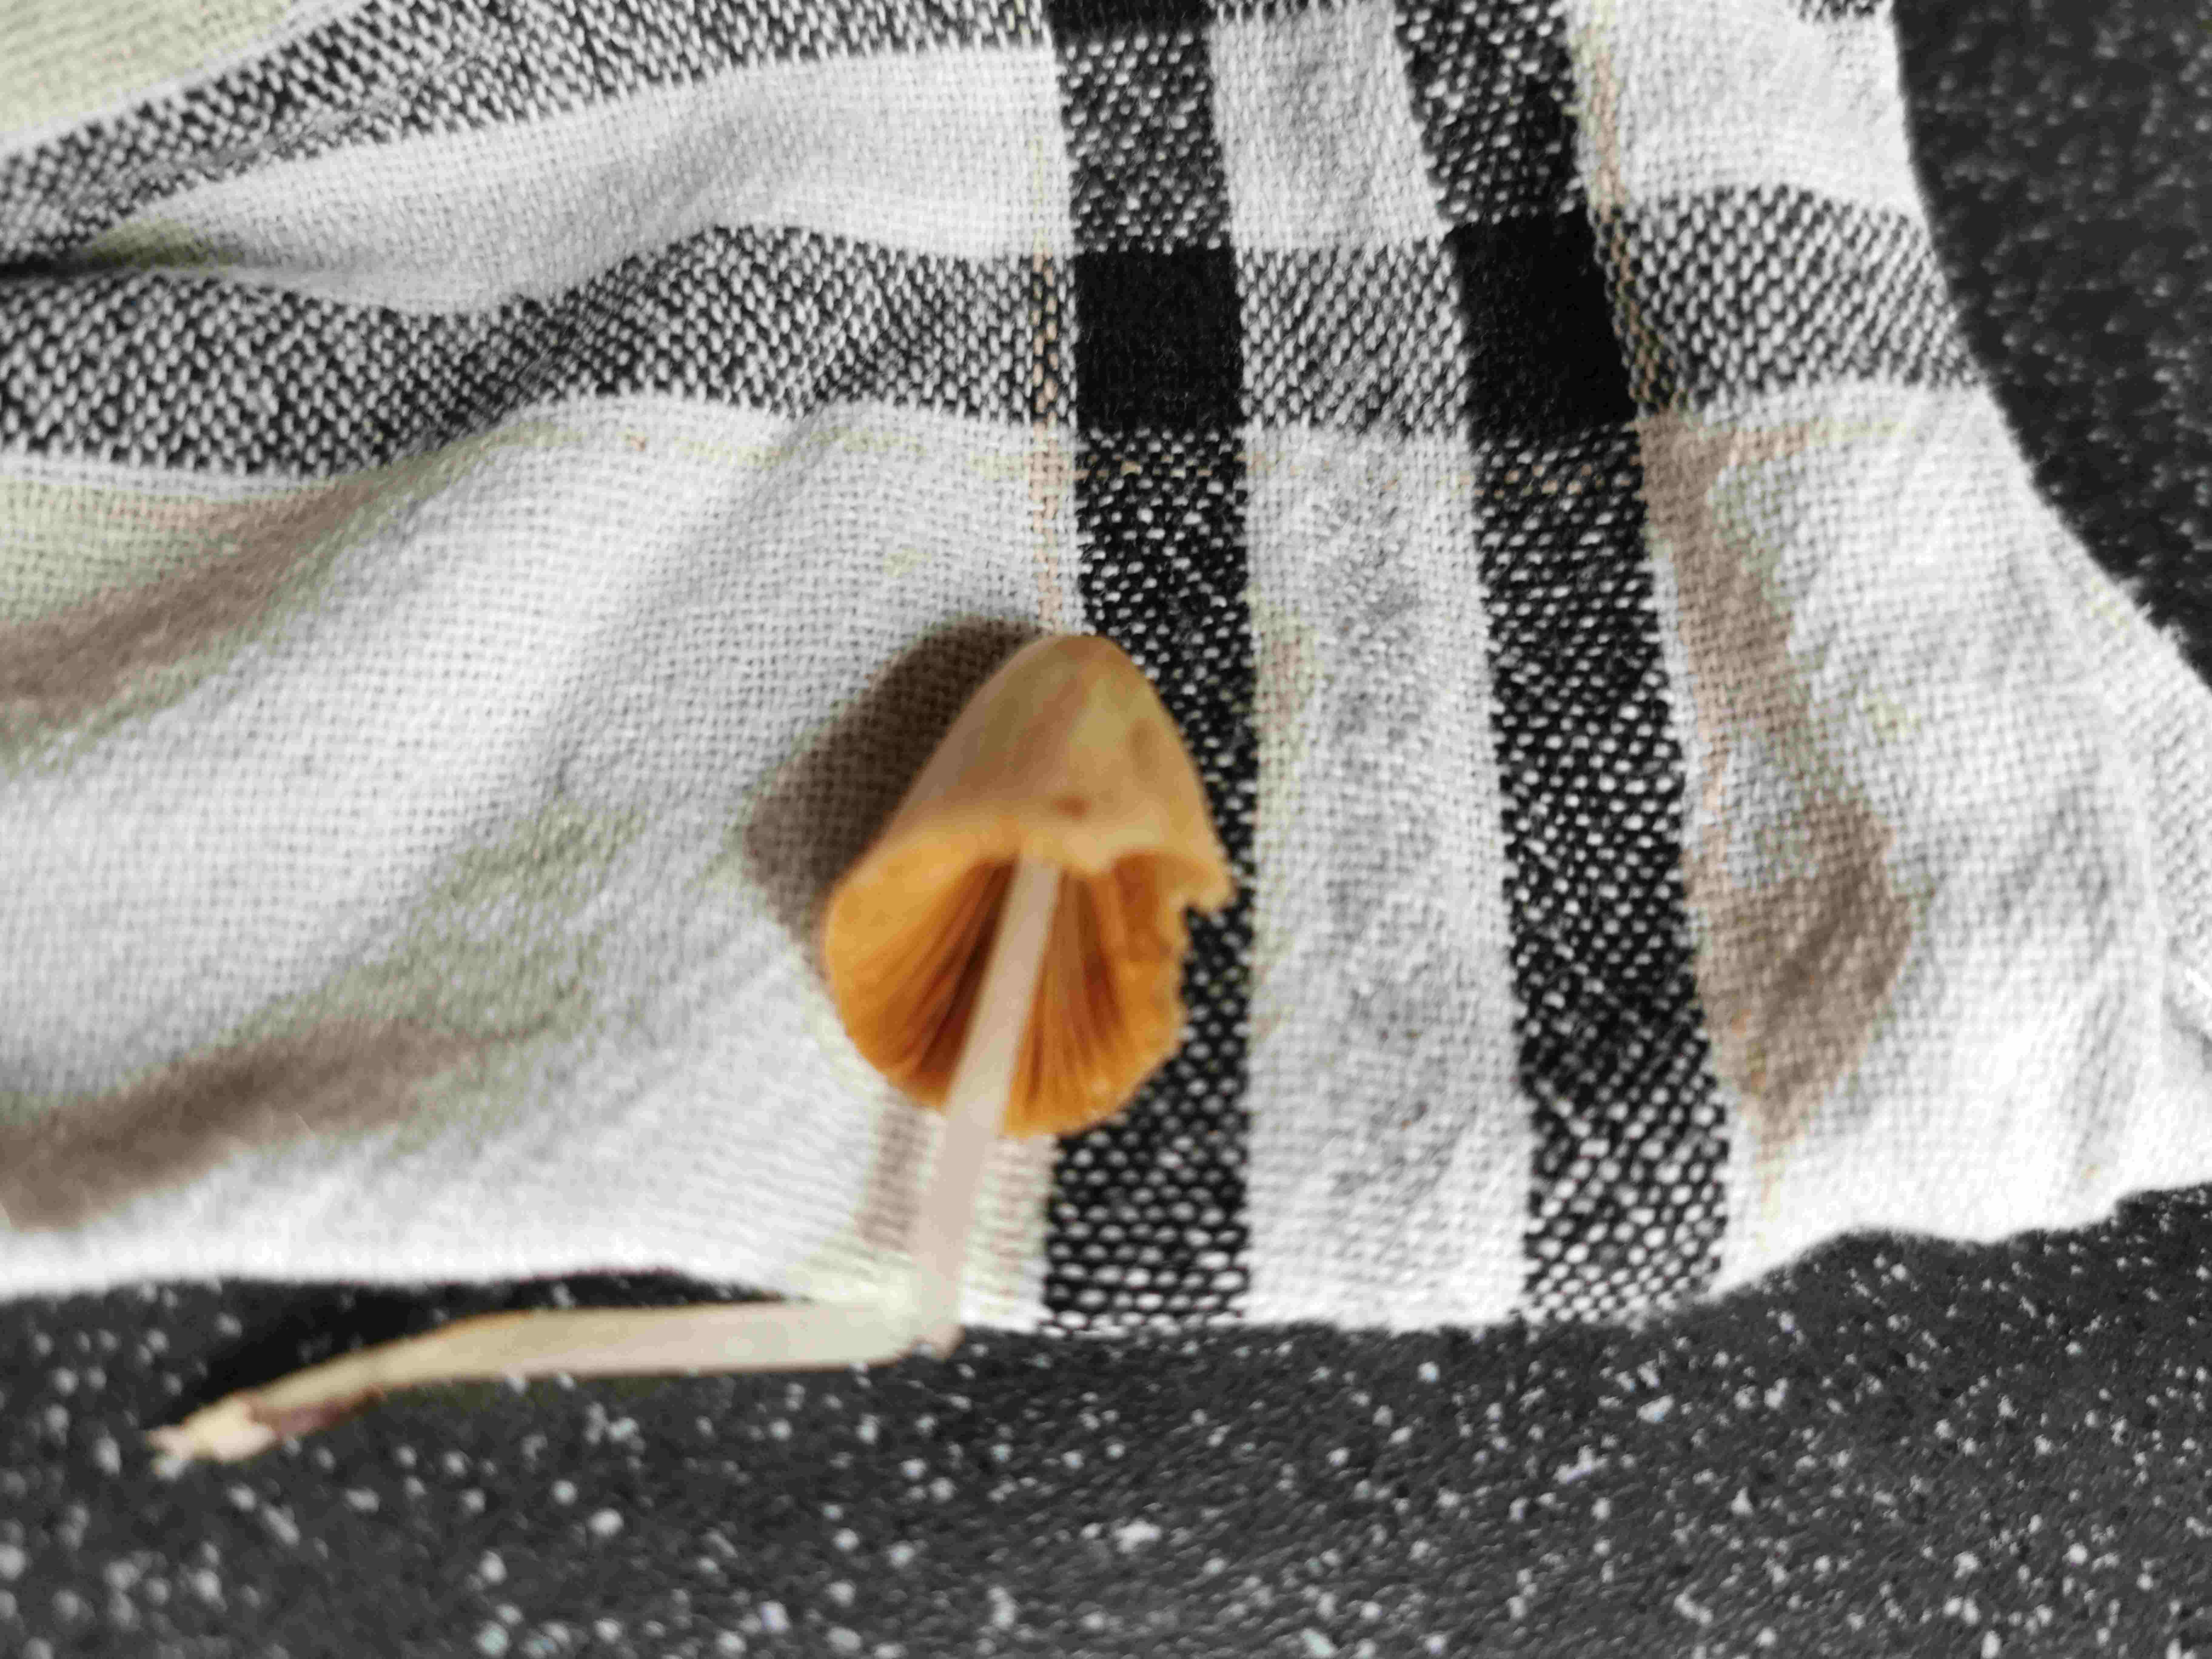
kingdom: Fungi
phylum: Basidiomycota
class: Agaricomycetes
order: Agaricales
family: Bolbitiaceae
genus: Conocybe
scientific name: Conocybe apala
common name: mælkehvid keglehat
